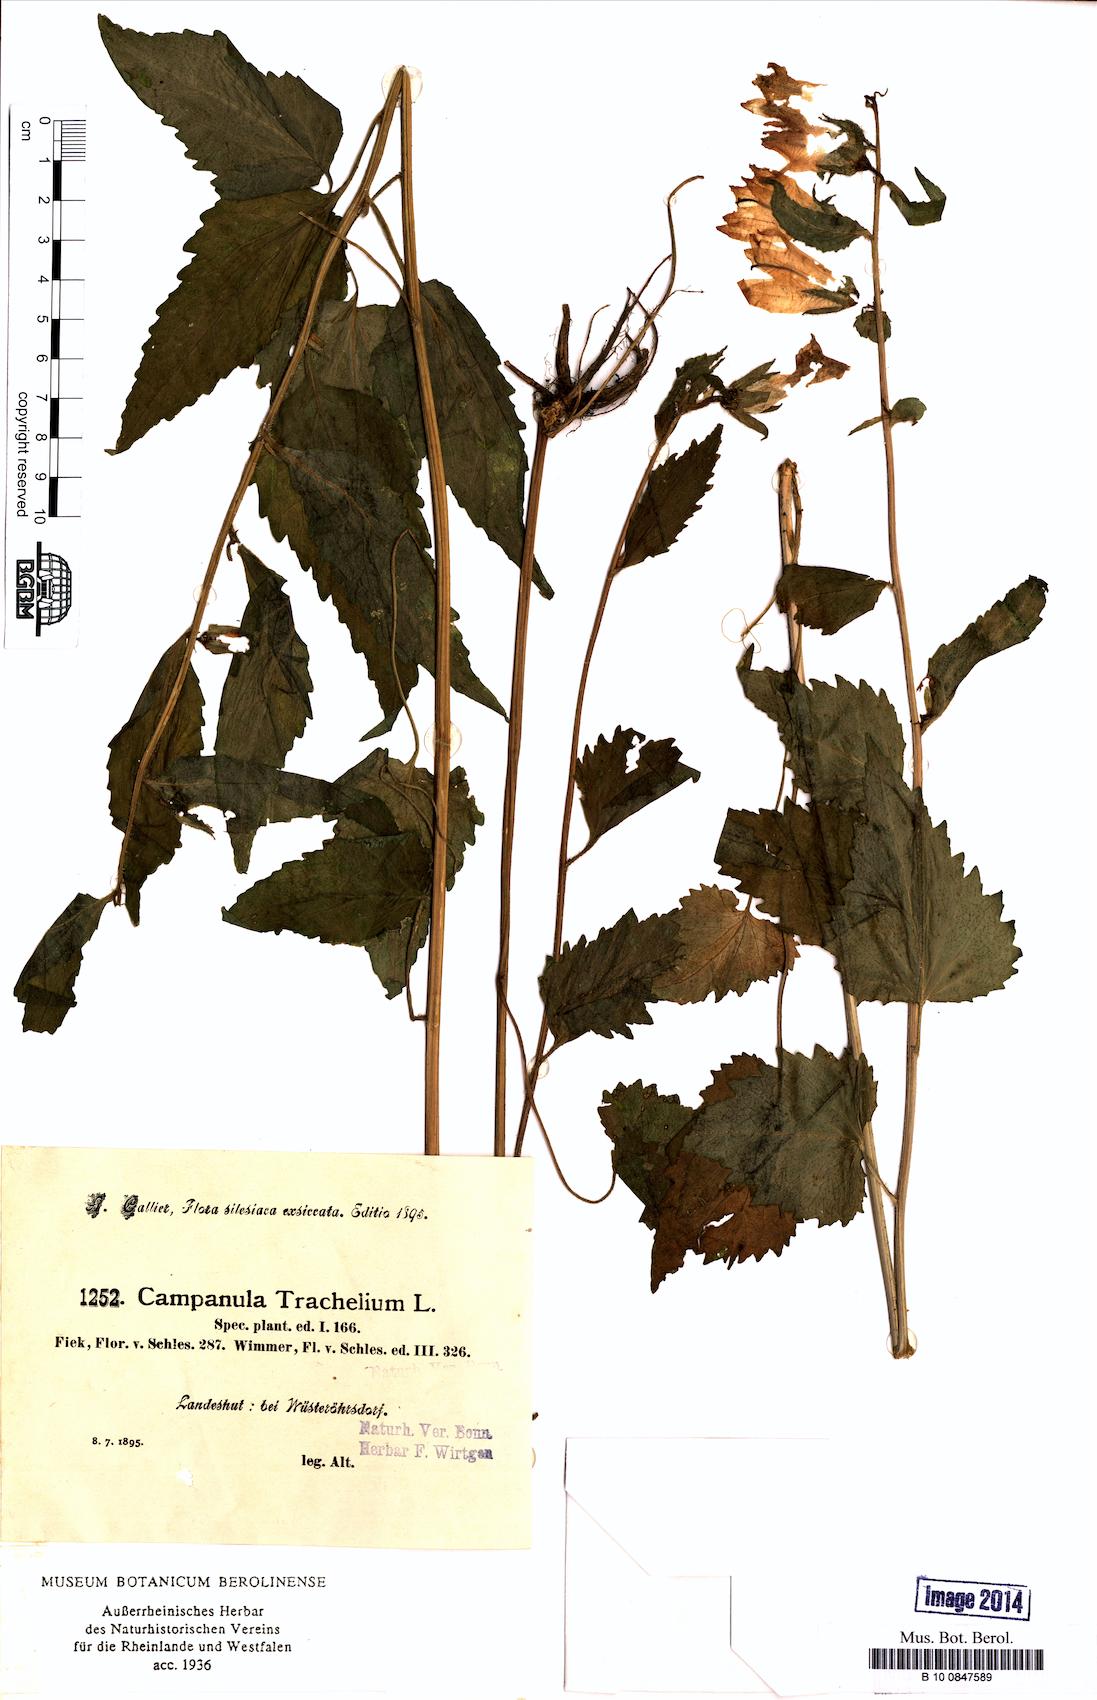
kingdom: Plantae
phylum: Tracheophyta
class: Magnoliopsida
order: Asterales
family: Campanulaceae
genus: Campanula
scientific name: Campanula trachelium
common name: Nettle-leaved bellflower
